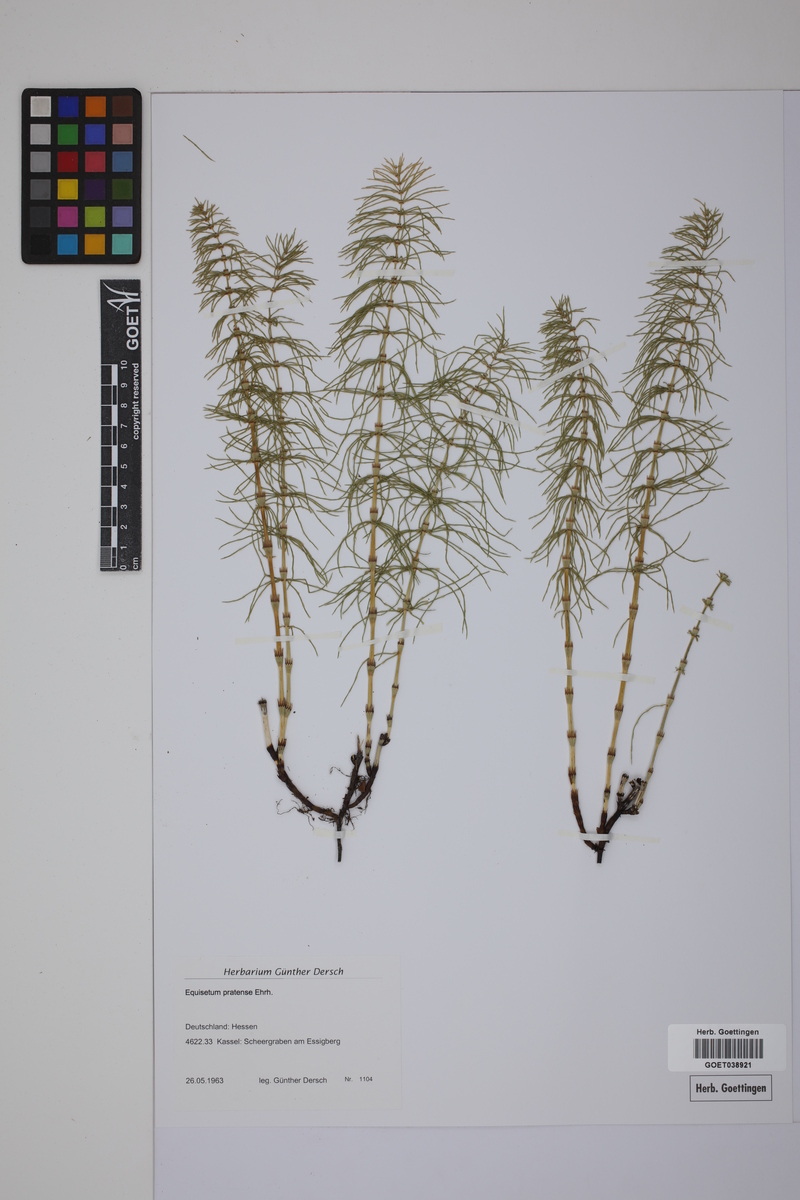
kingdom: Plantae
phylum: Tracheophyta
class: Polypodiopsida
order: Equisetales
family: Equisetaceae
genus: Equisetum
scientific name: Equisetum pratense
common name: Meadow horsetail
